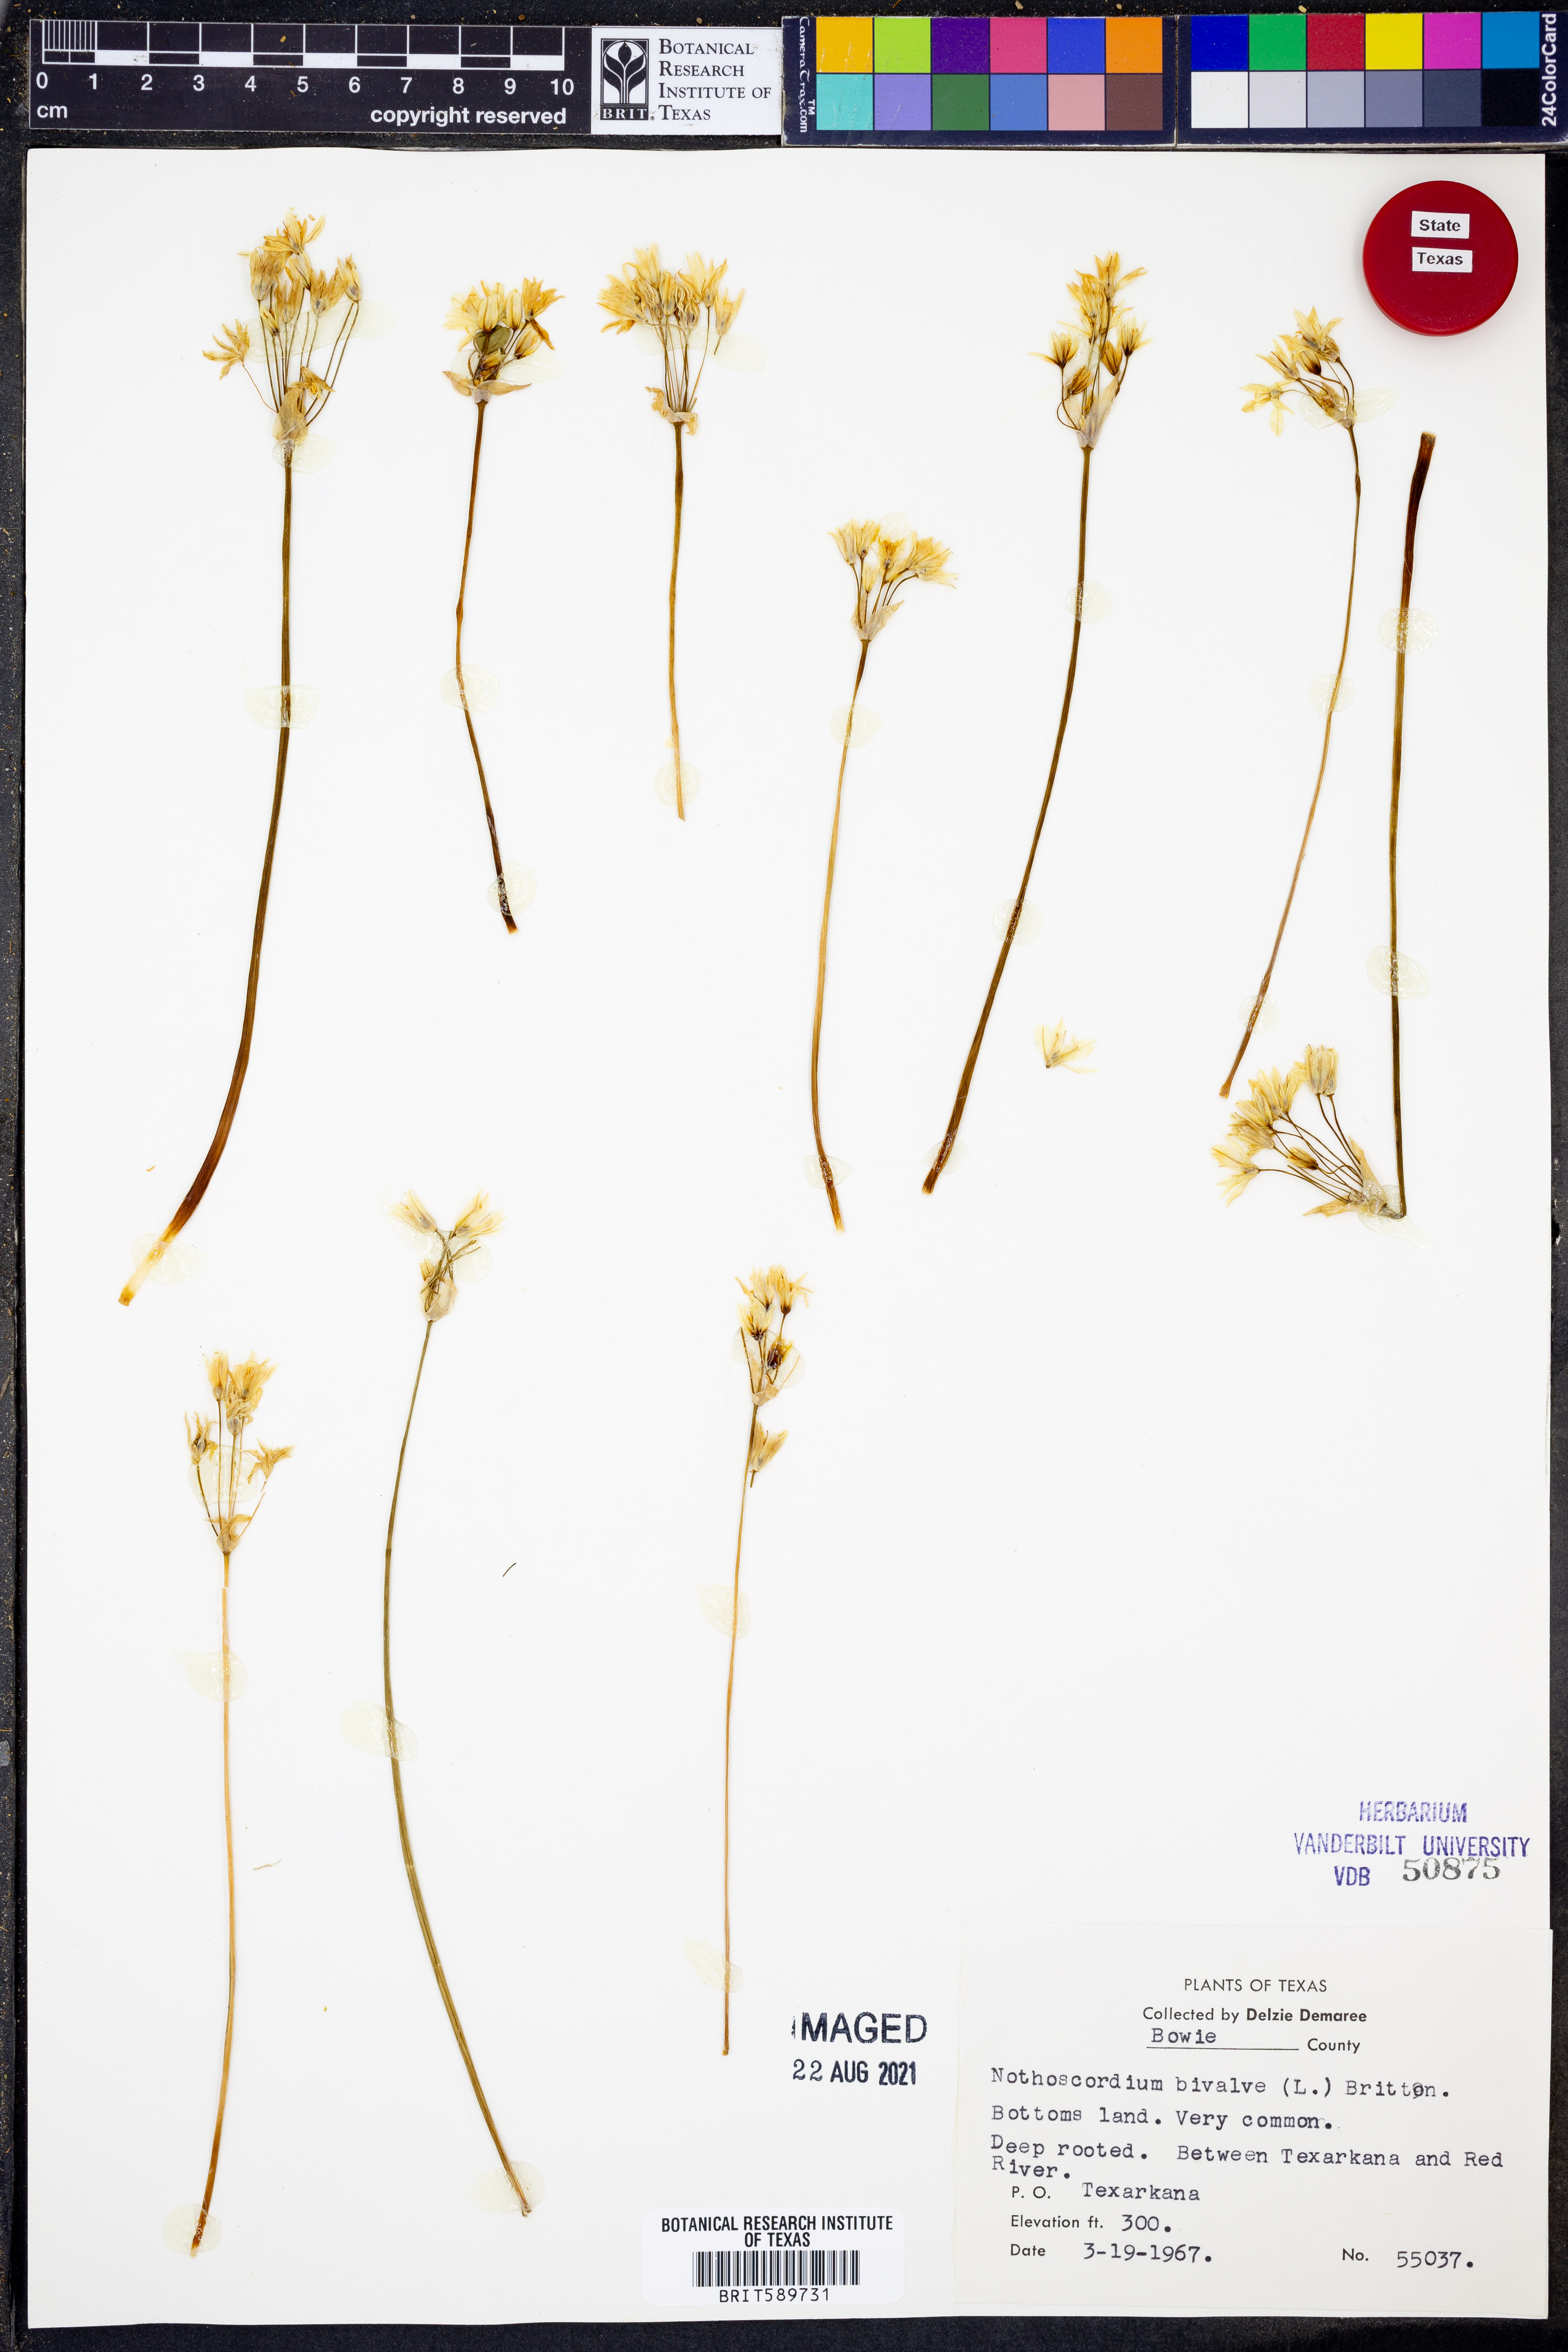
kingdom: Plantae
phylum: Tracheophyta
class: Liliopsida
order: Asparagales
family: Amaryllidaceae
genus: Nothoscordum
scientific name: Nothoscordum bivalve
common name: Crow-poison
